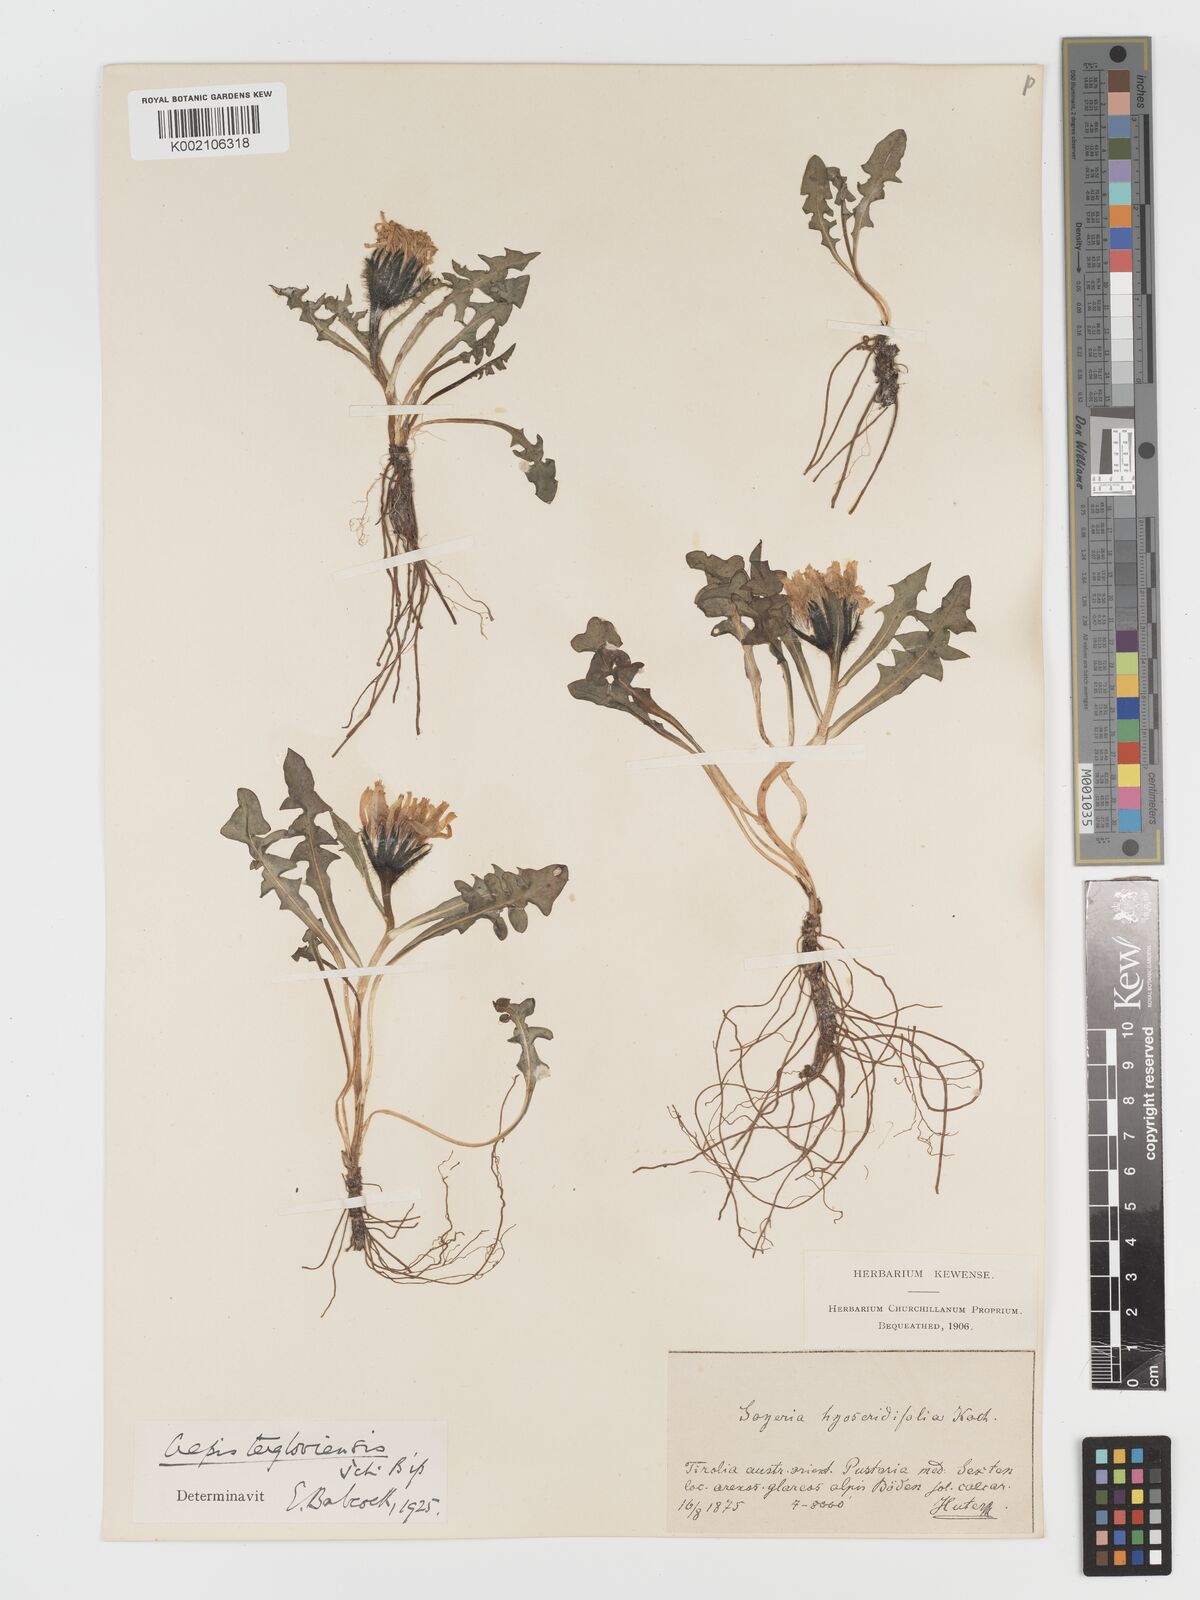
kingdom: Plantae
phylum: Tracheophyta
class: Magnoliopsida
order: Asterales
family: Asteraceae
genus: Crepis
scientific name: Crepis terglouensis
